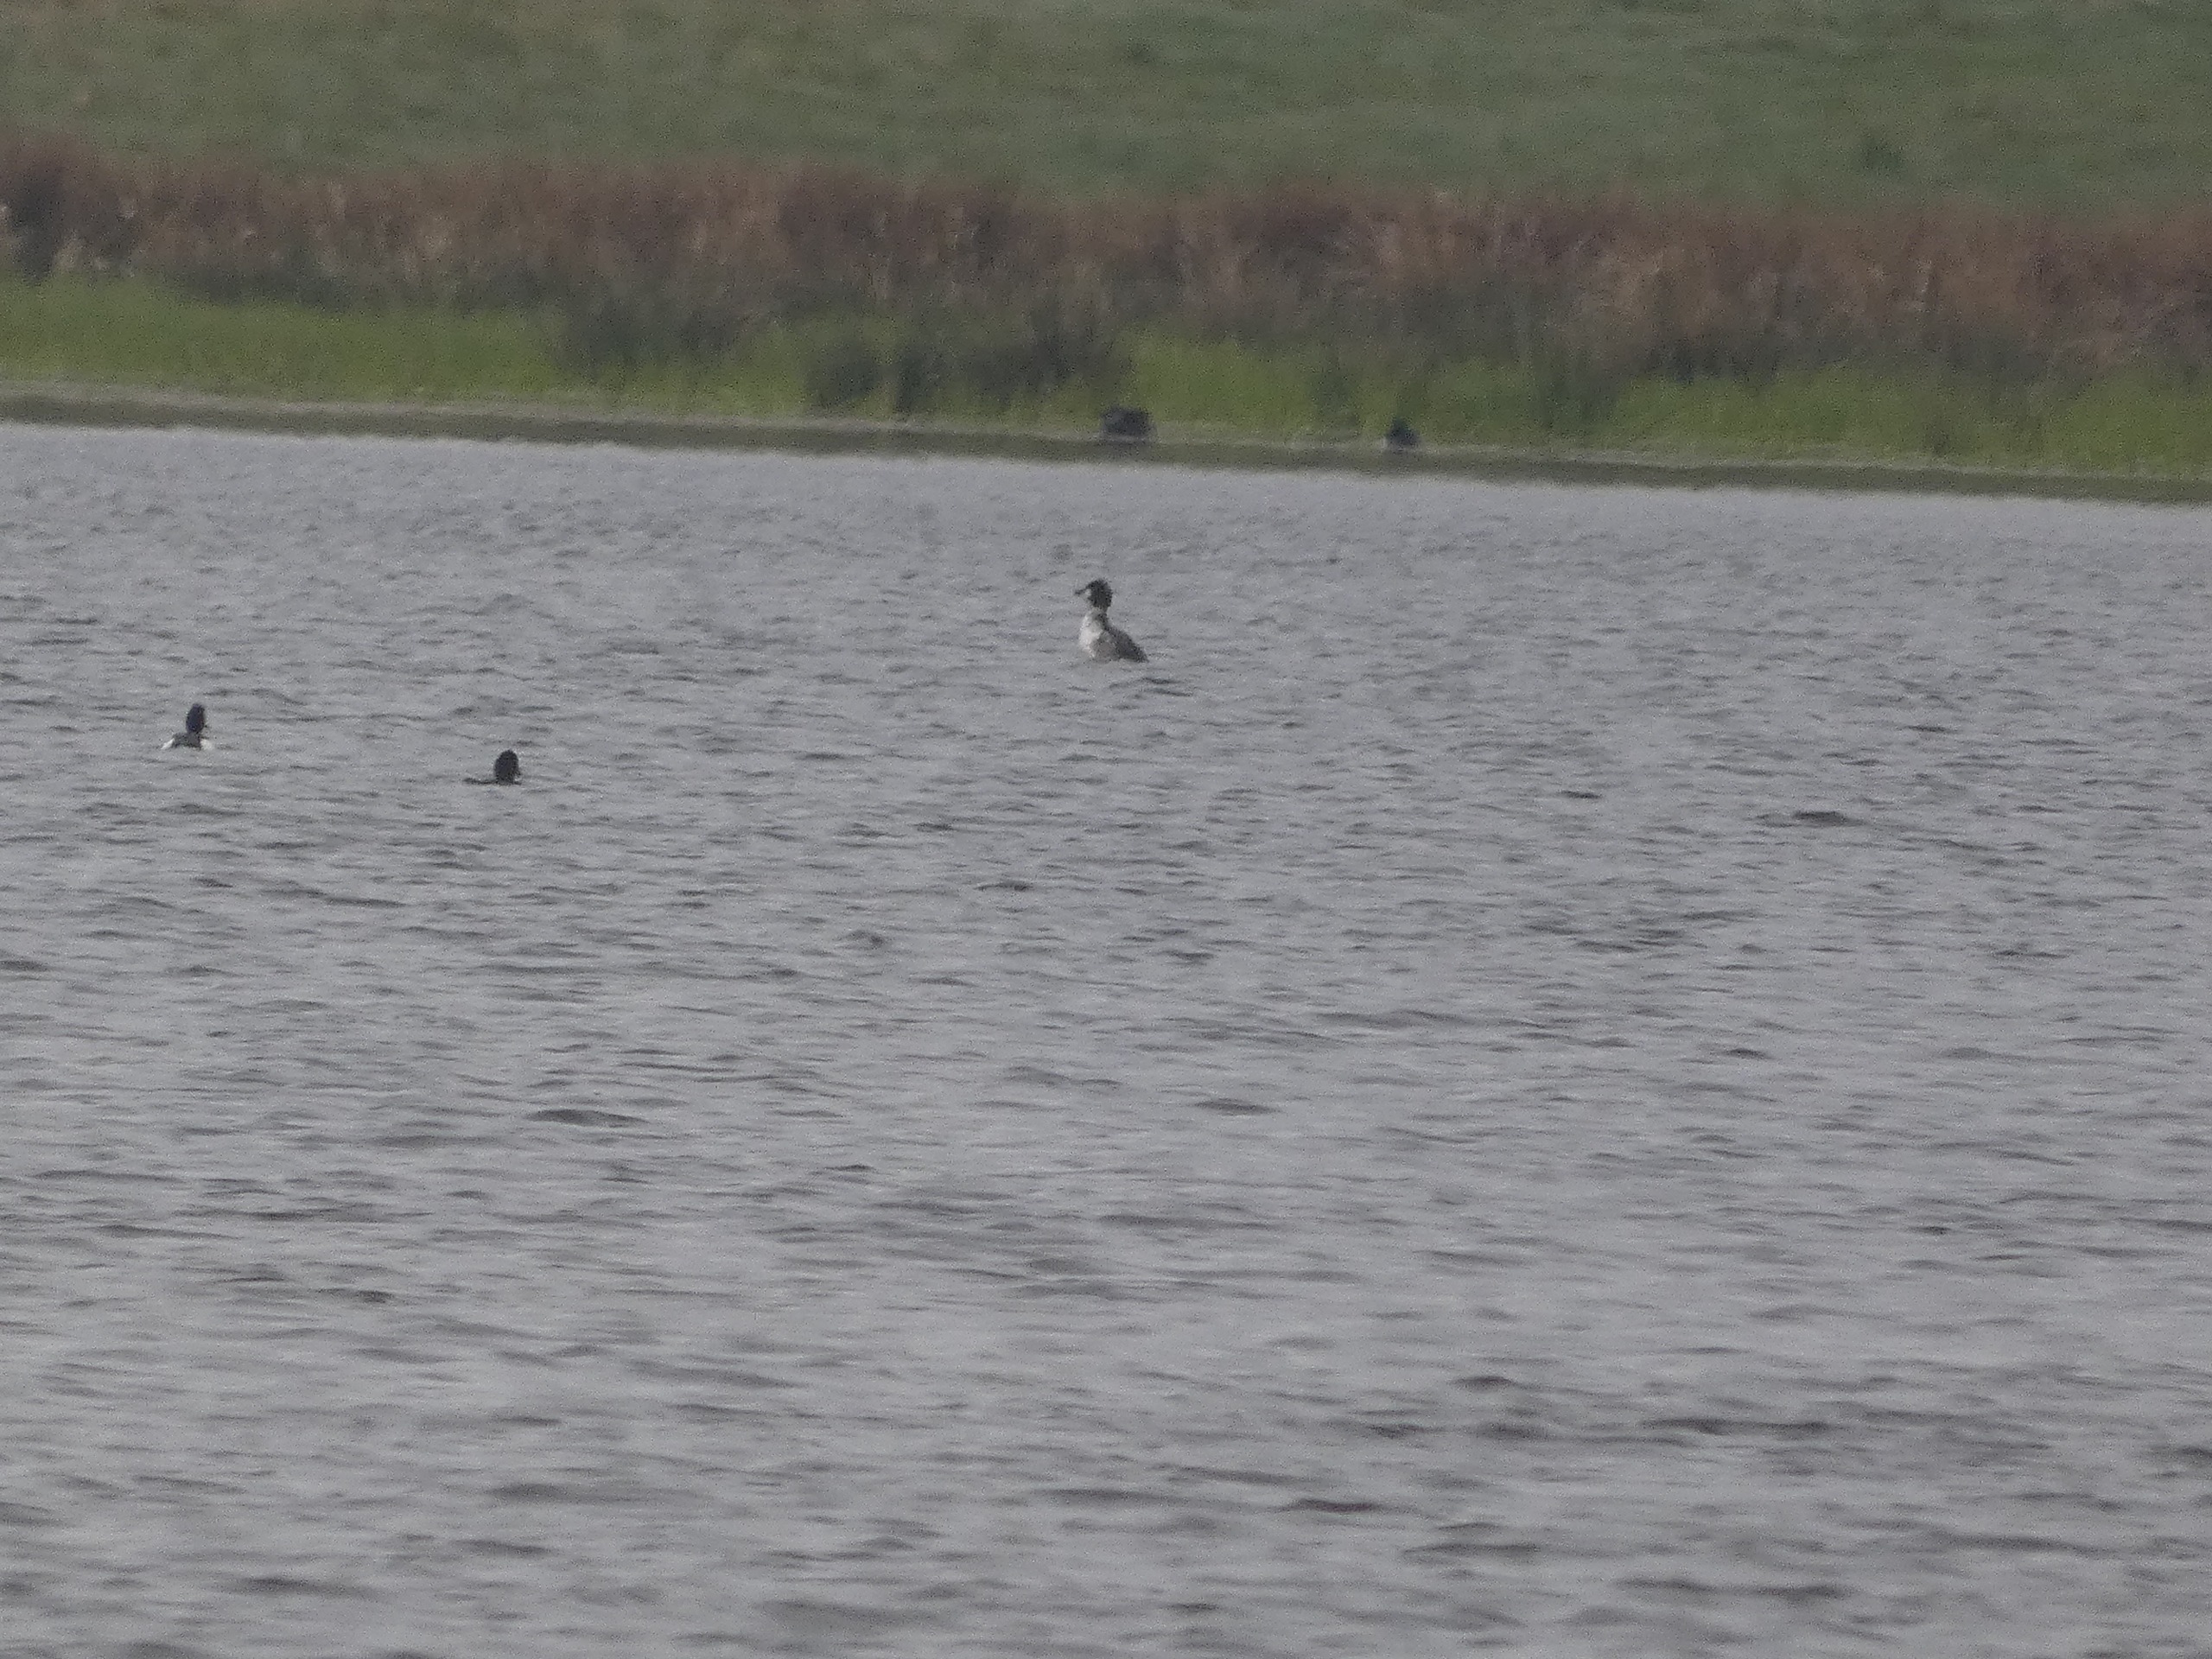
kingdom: Animalia
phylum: Chordata
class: Aves
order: Anseriformes
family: Anatidae
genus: Bucephala
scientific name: Bucephala clangula
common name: Hvinand
